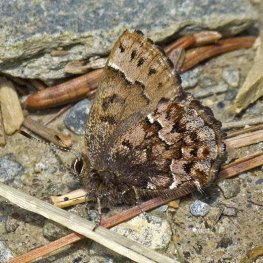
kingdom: Animalia
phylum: Arthropoda
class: Insecta
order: Lepidoptera
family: Lycaenidae
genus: Incisalia
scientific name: Incisalia lanoraieensis
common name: Bog Elfin
